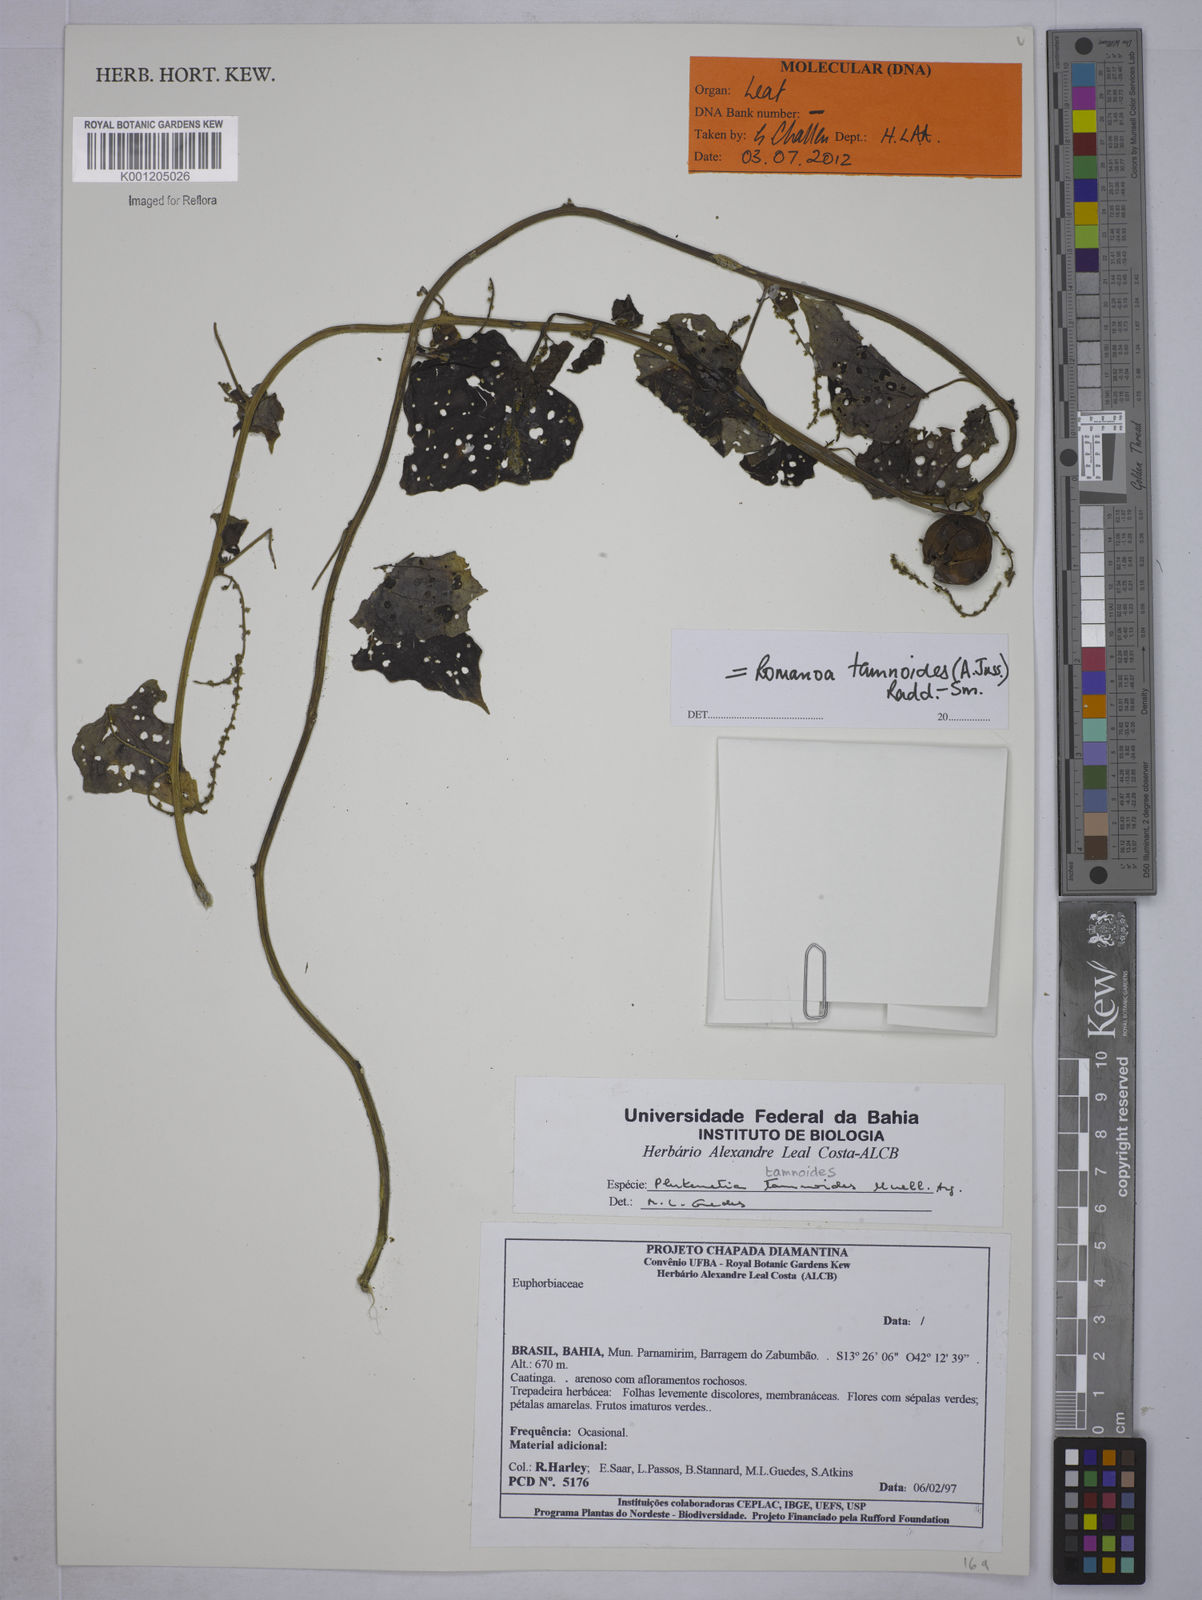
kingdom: Plantae
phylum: Tracheophyta
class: Magnoliopsida
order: Malpighiales
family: Euphorbiaceae
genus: Romanoa
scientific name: Romanoa tamnoides
